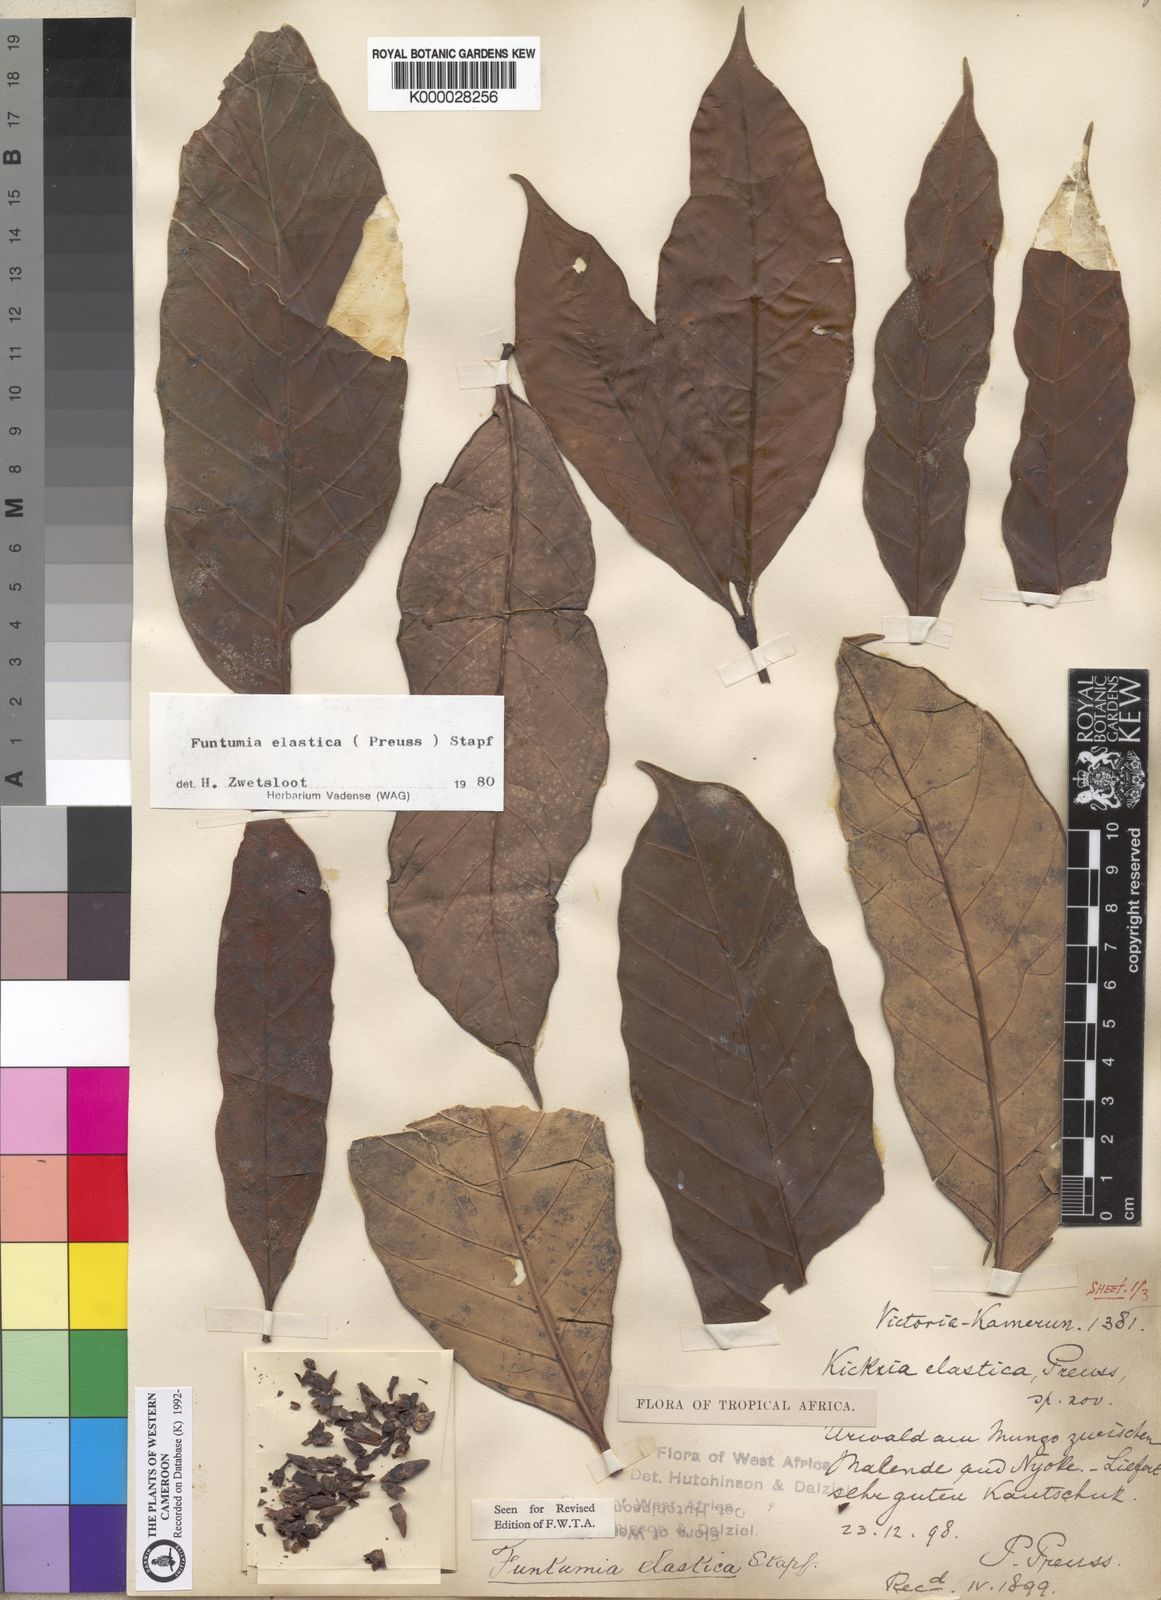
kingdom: Plantae
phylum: Tracheophyta
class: Magnoliopsida
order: Gentianales
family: Apocynaceae
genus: Funtumia
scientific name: Funtumia elastica
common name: Silkrubber
